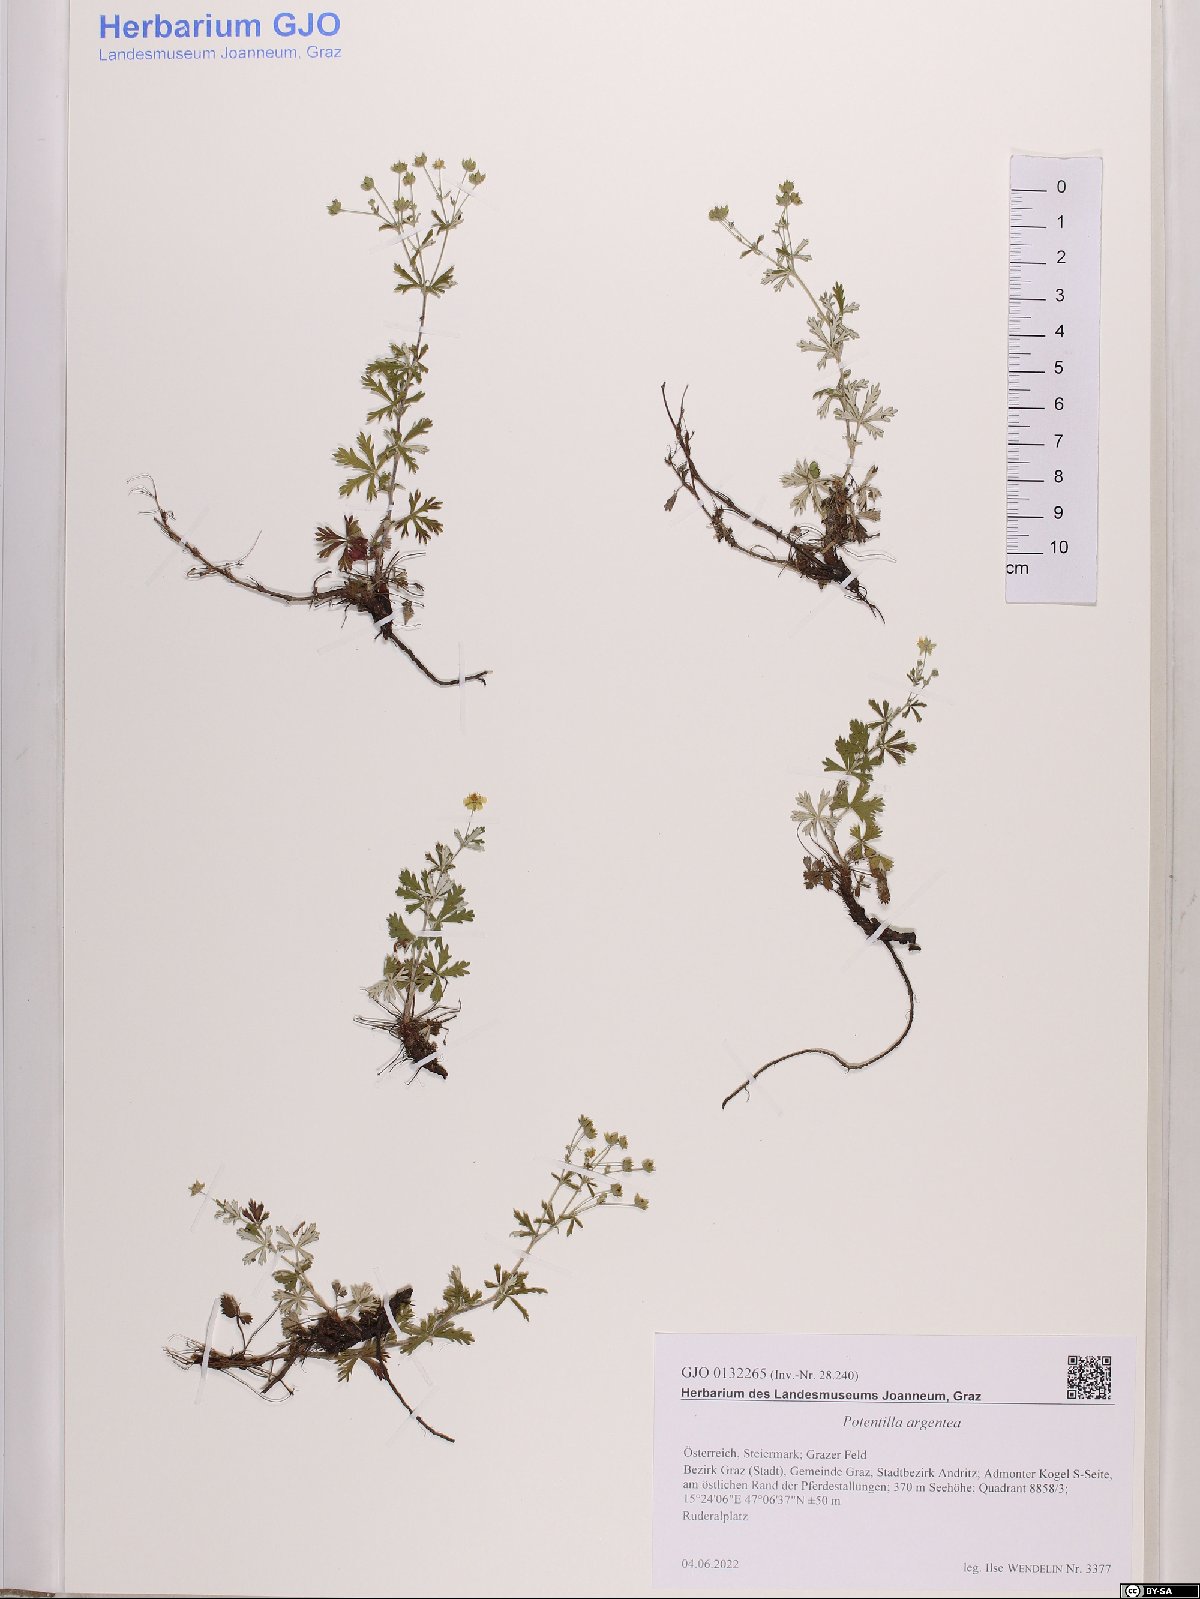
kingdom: Plantae
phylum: Tracheophyta
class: Magnoliopsida
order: Rosales
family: Rosaceae
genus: Potentilla
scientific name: Potentilla argentea
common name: Hoary cinquefoil
